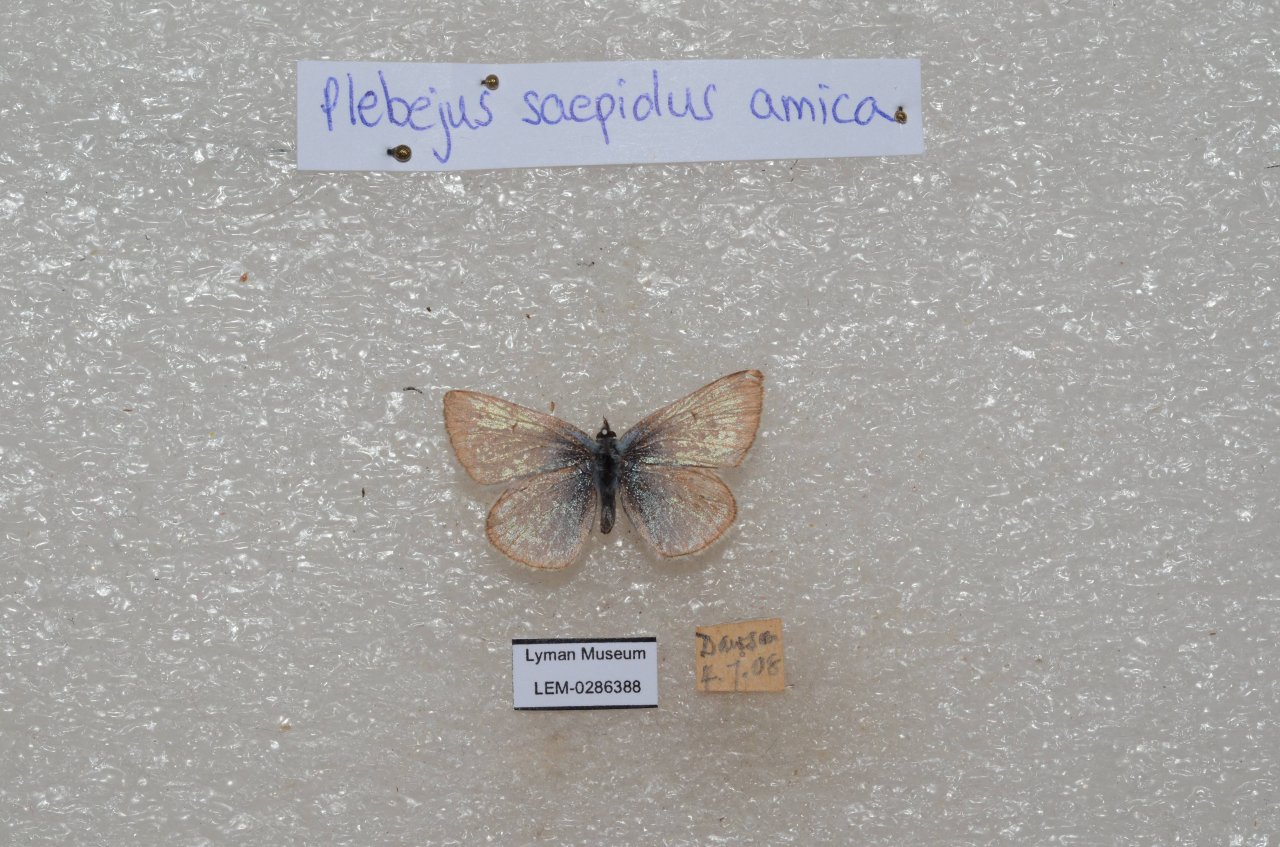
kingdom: Animalia
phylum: Arthropoda
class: Insecta
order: Lepidoptera
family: Lycaenidae
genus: Plebejus
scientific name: Plebejus saepiolus
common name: Greenish Blue
